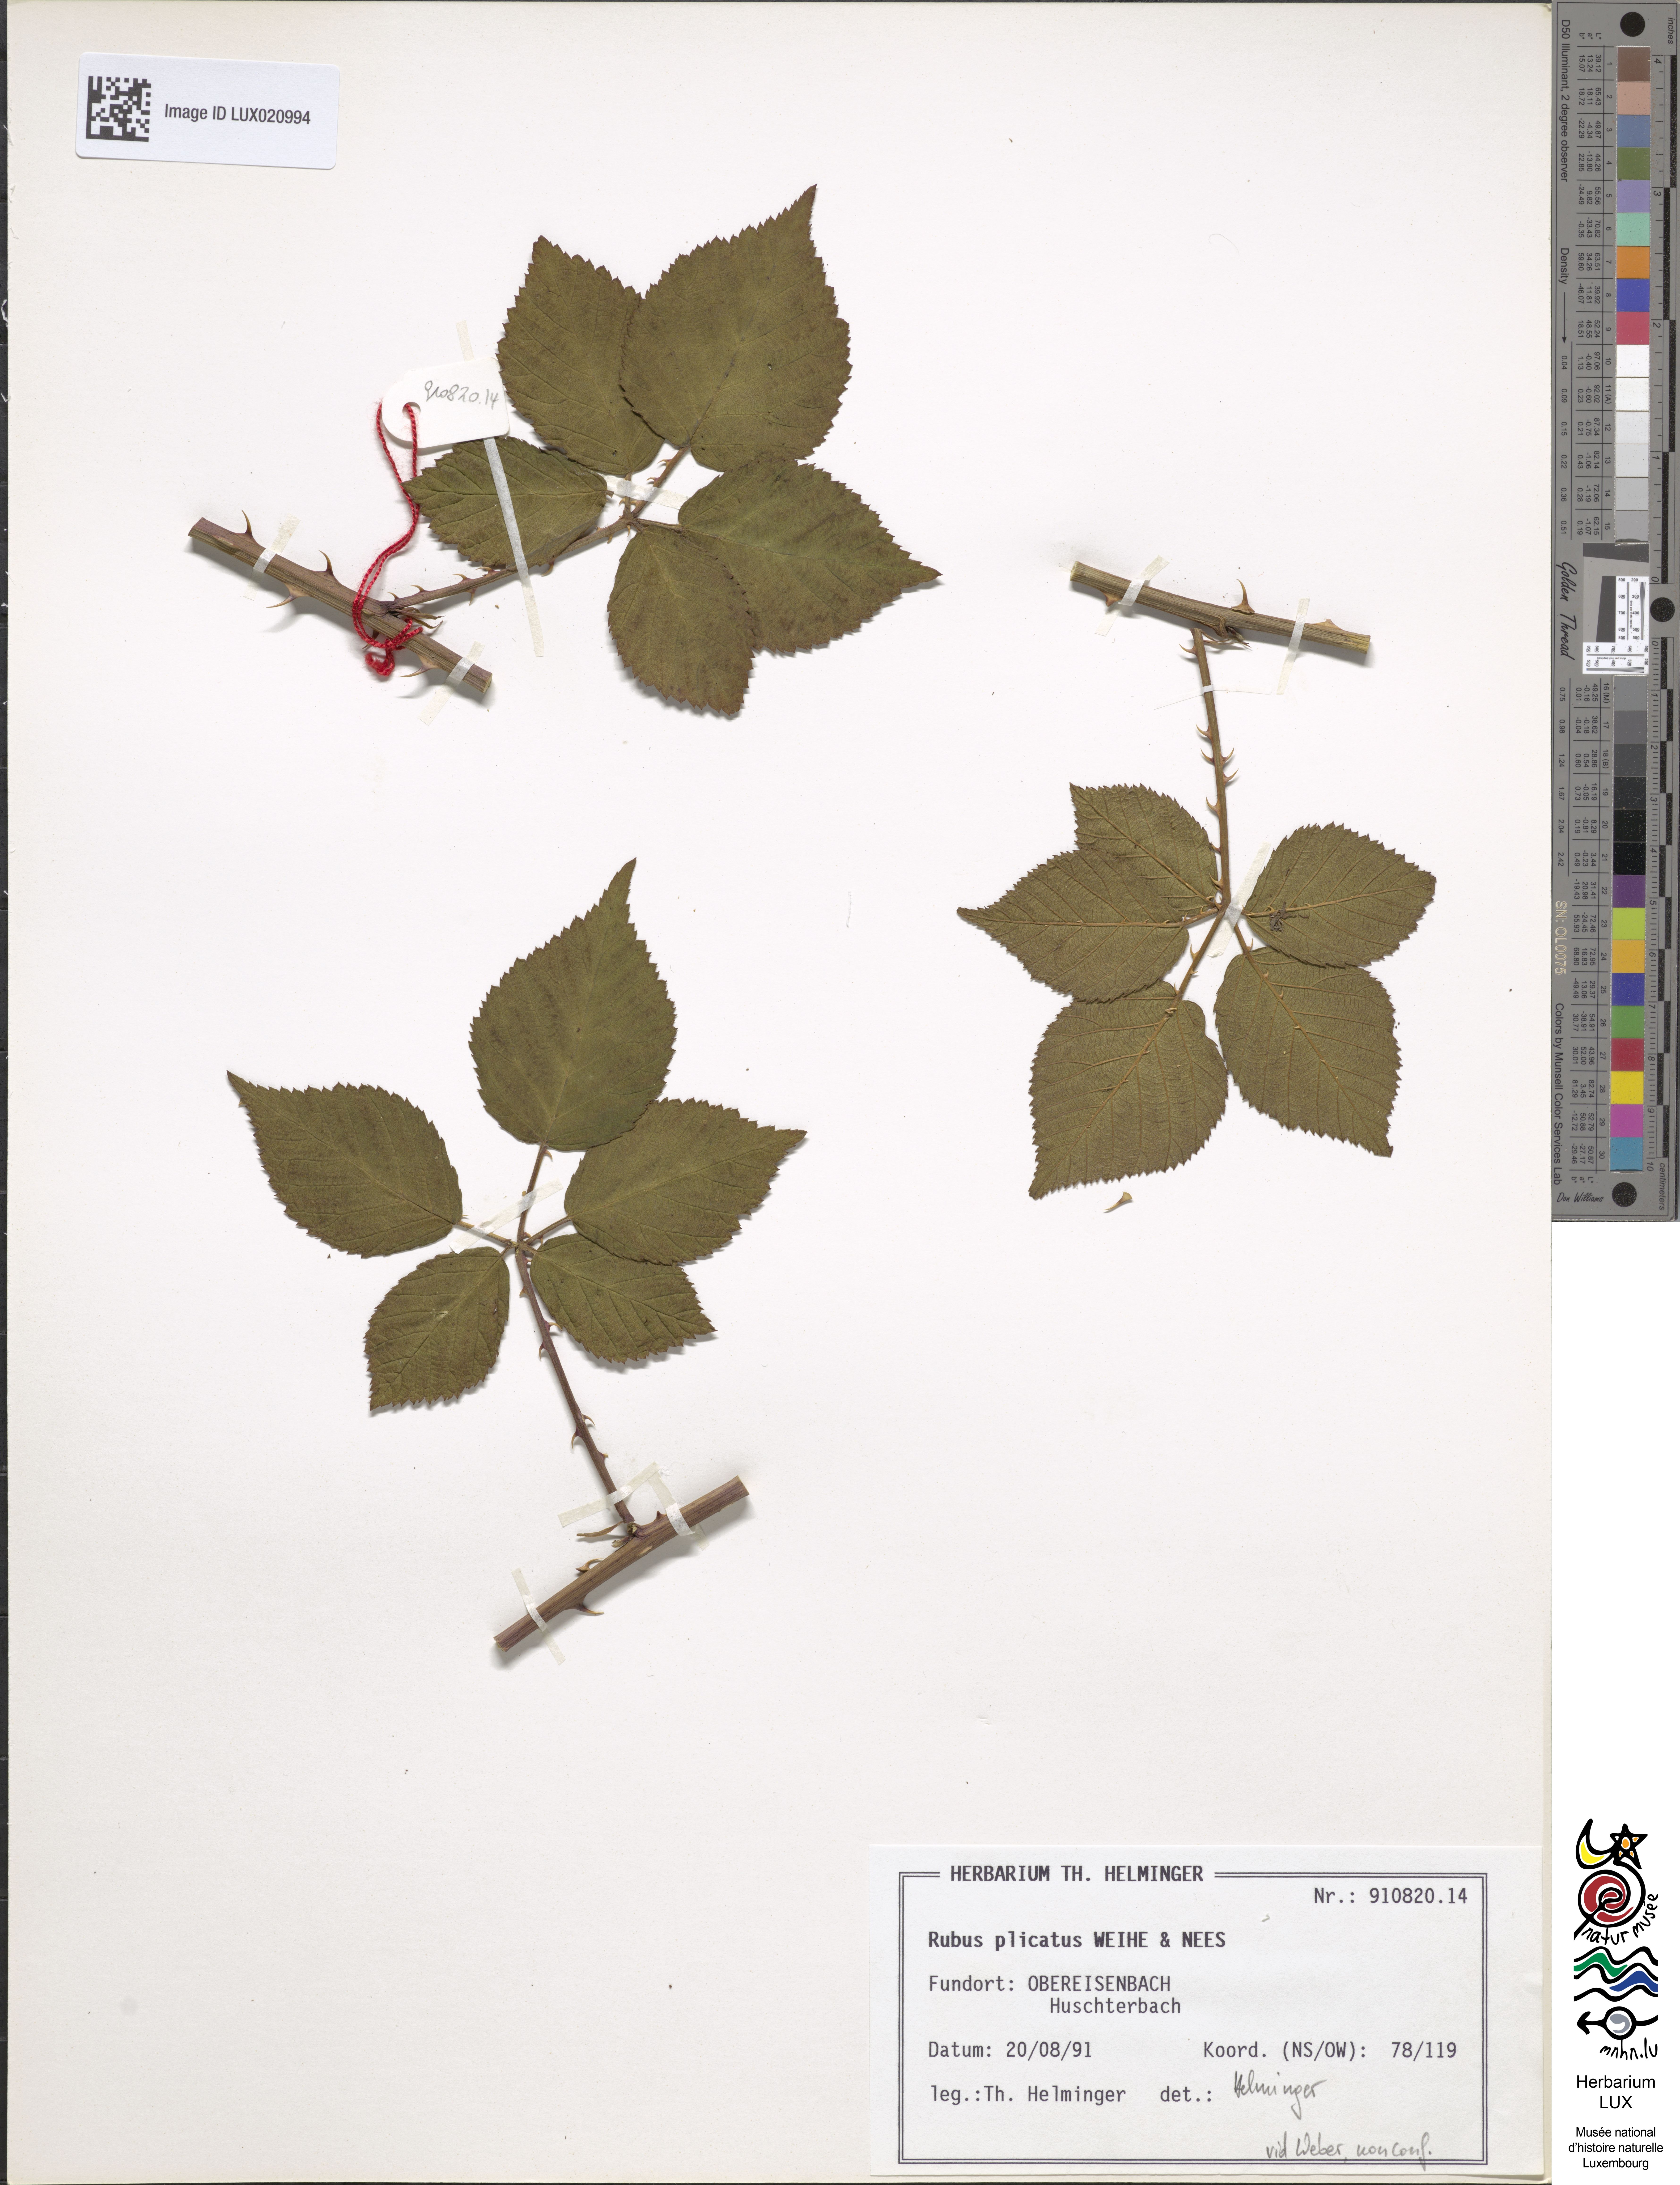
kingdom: Plantae
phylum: Tracheophyta
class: Magnoliopsida
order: Rosales
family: Rosaceae
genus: Rubus
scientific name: Rubus plicatus
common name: Plaited-leaved bramble
